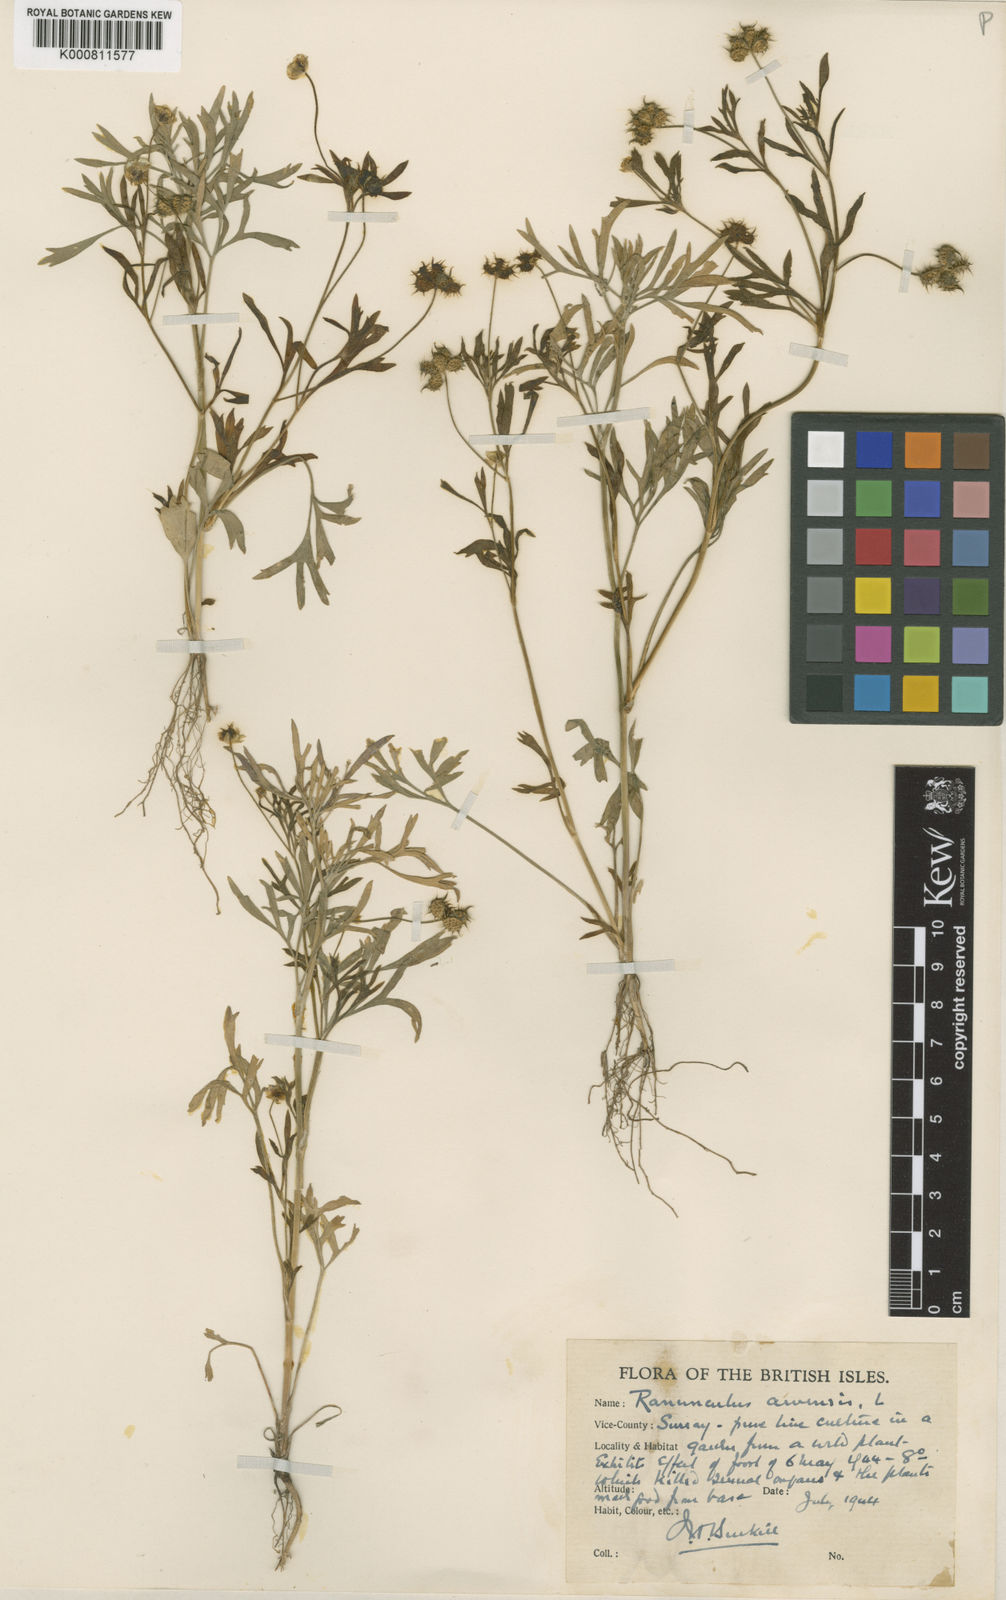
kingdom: Plantae
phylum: Tracheophyta
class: Magnoliopsida
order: Ranunculales
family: Ranunculaceae
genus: Ranunculus
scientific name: Ranunculus arvensis
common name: Corn buttercup
